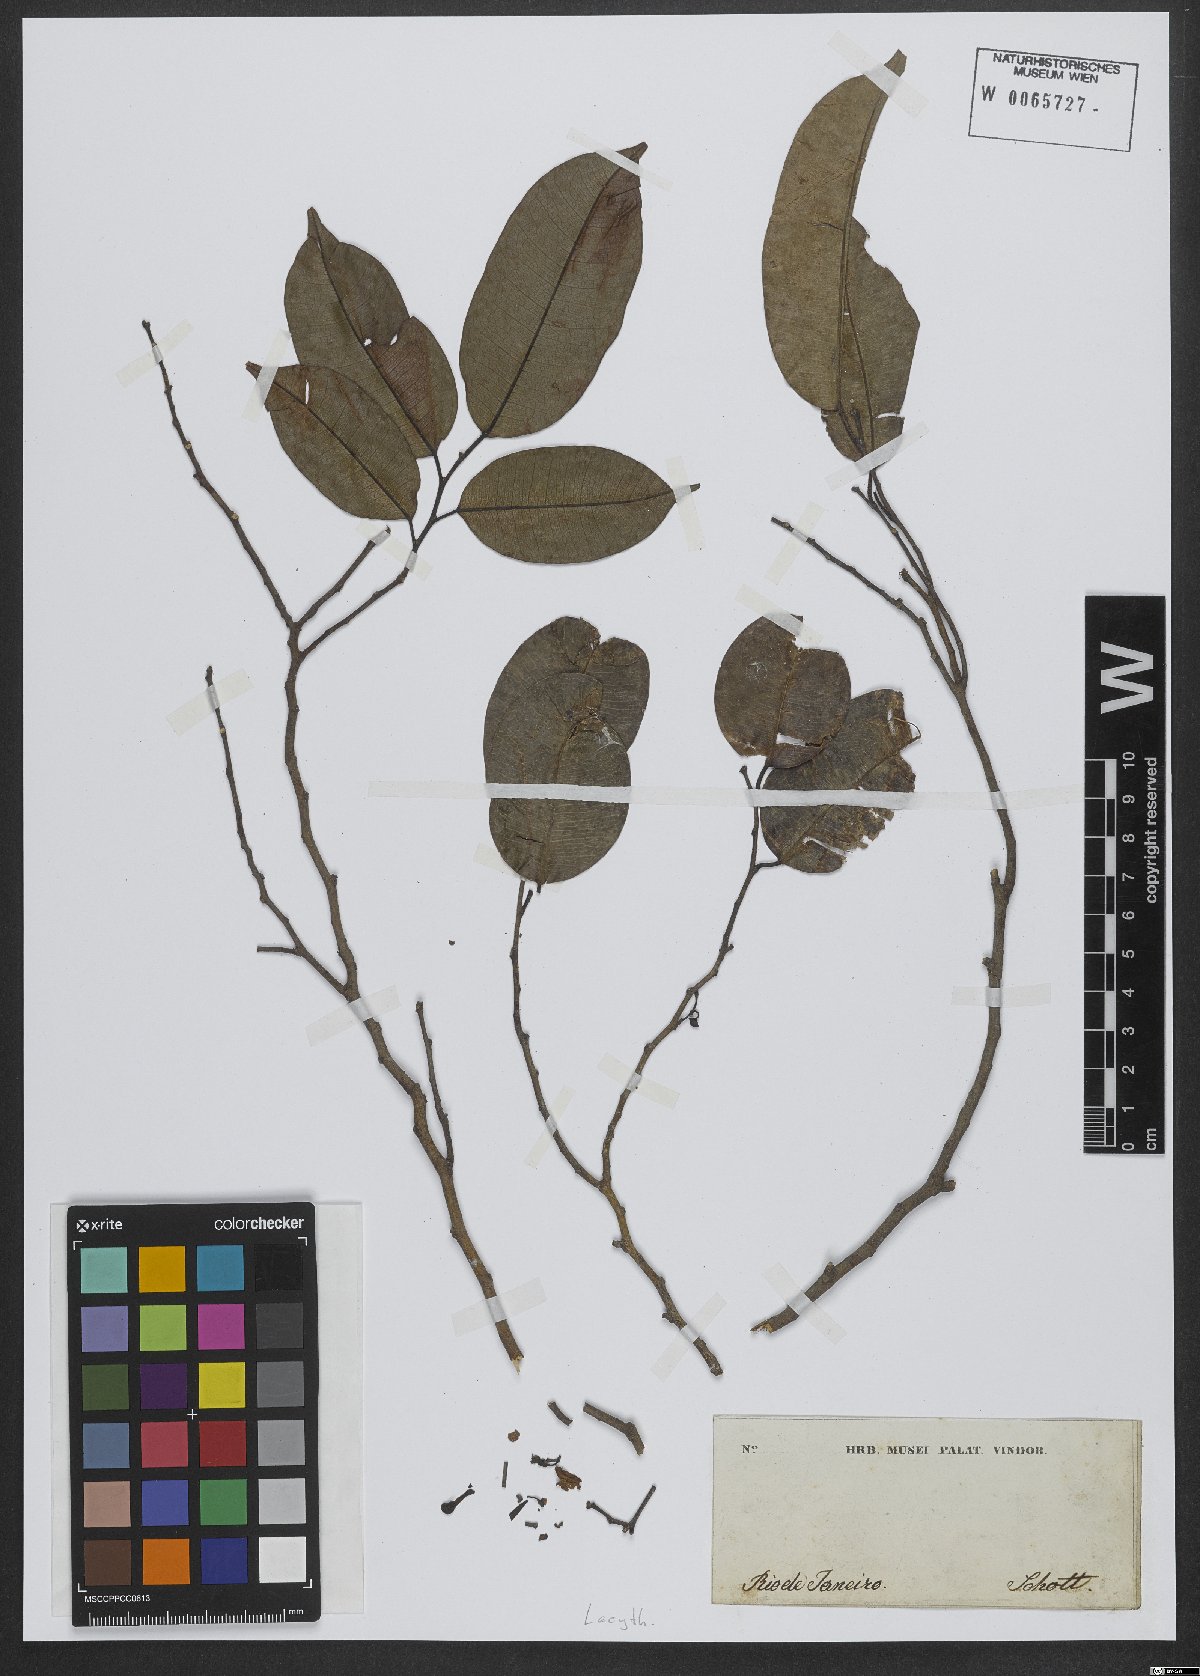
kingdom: Plantae
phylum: Tracheophyta
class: Magnoliopsida
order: Ericales
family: Lecythidaceae
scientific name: Lecythidaceae
